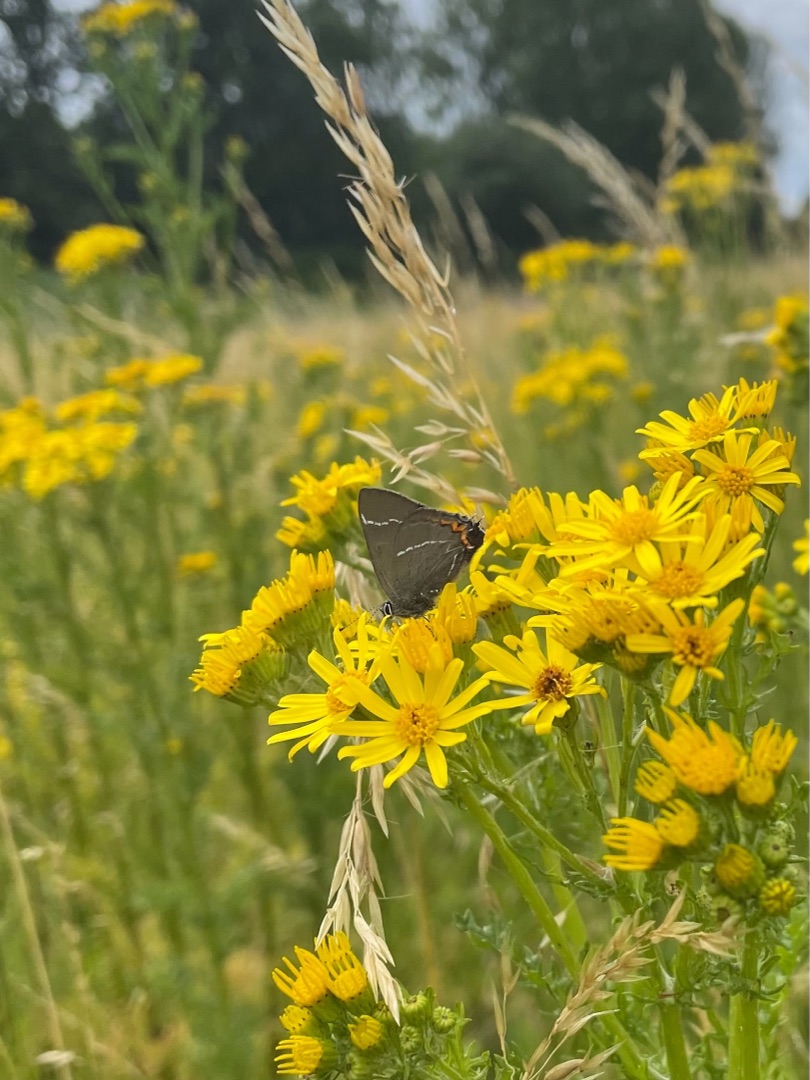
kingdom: Animalia
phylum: Arthropoda
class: Insecta
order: Lepidoptera
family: Lycaenidae
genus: Satyrium
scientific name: Satyrium w-album
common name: Det hvide W
